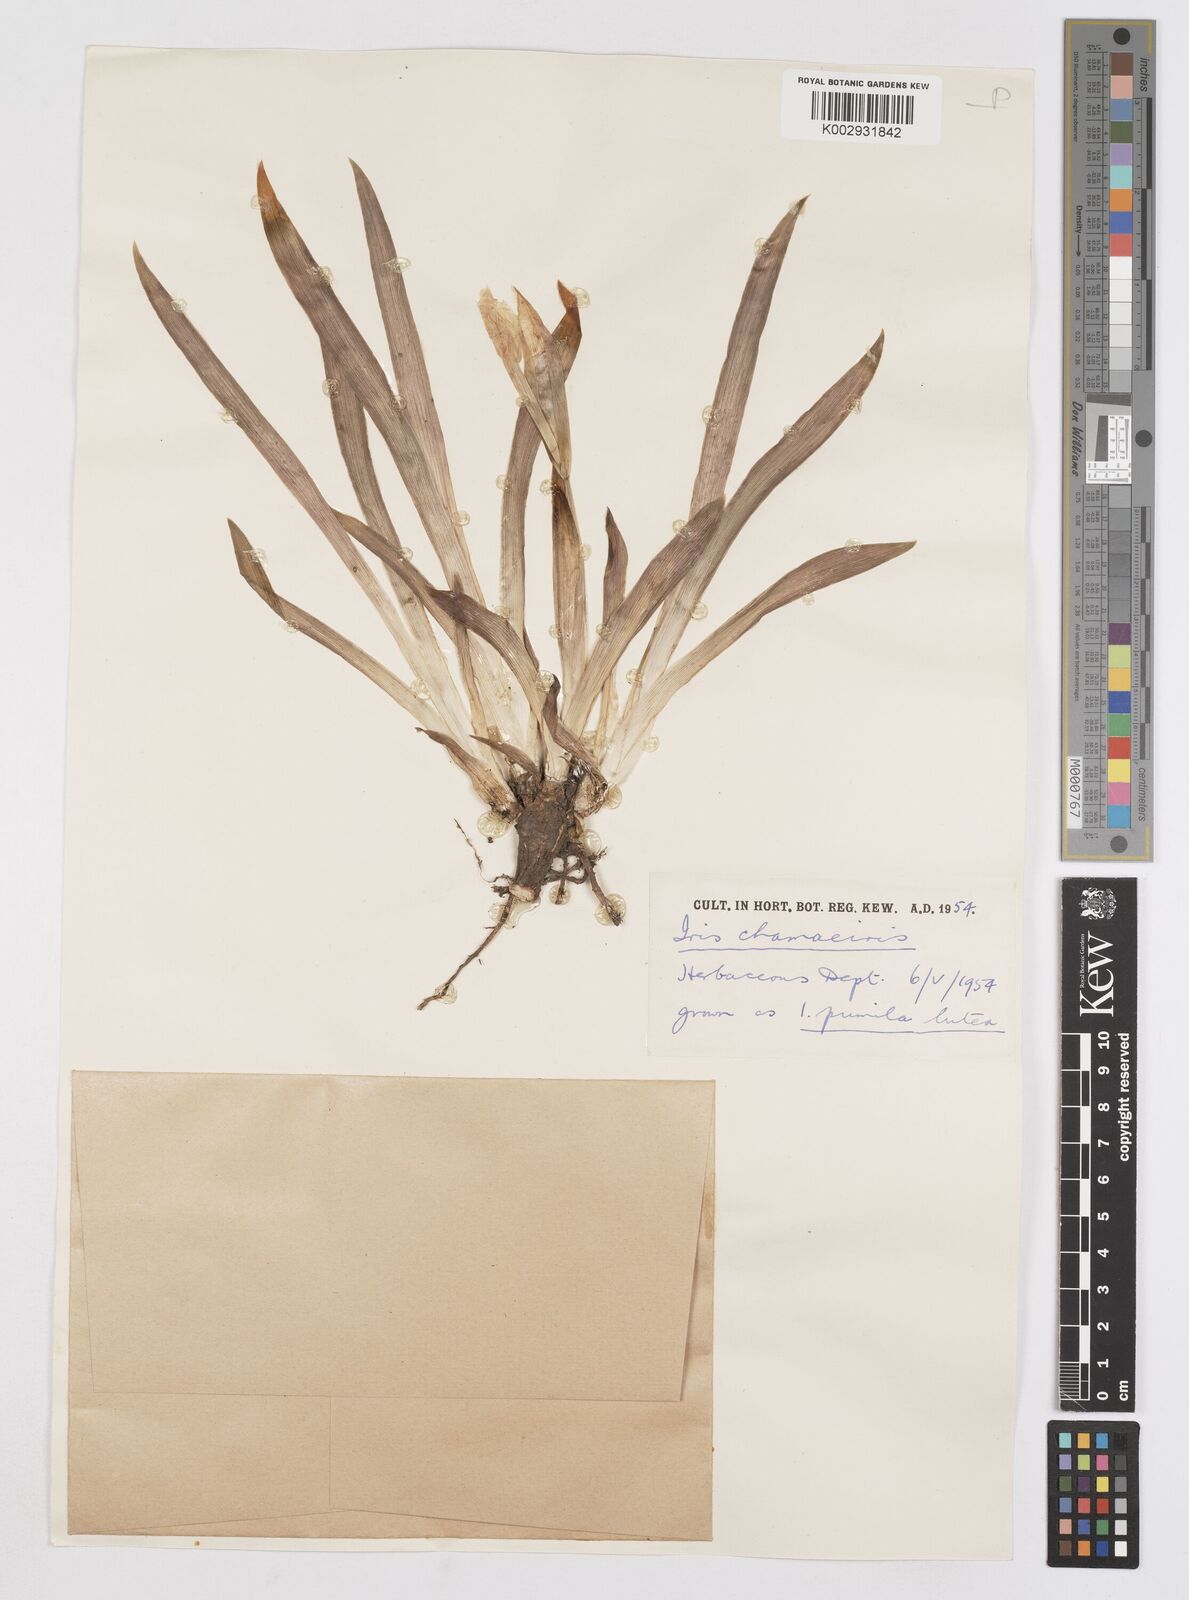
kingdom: Plantae
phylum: Tracheophyta
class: Liliopsida
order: Asparagales
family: Iridaceae
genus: Iris
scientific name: Iris lutescens
